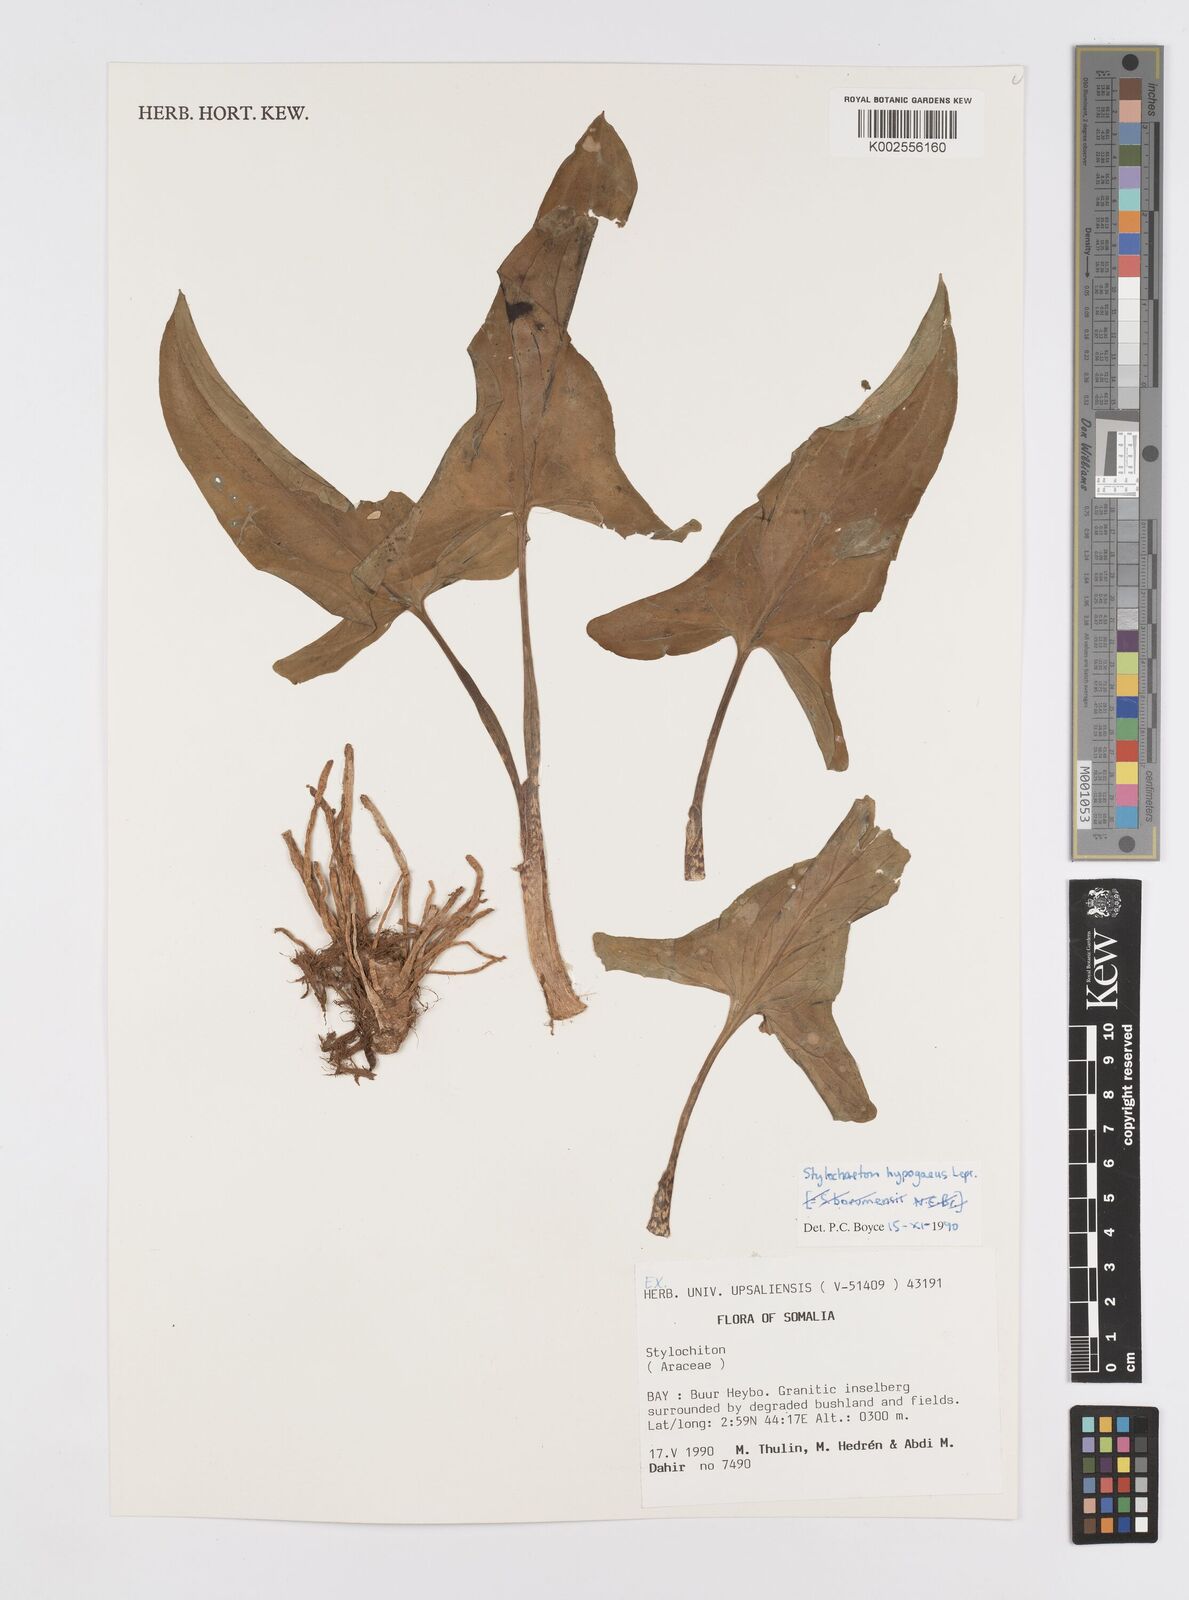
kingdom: Plantae
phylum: Tracheophyta
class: Liliopsida
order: Alismatales
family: Araceae
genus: Stylochaeton
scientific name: Stylochaeton hypogeum
